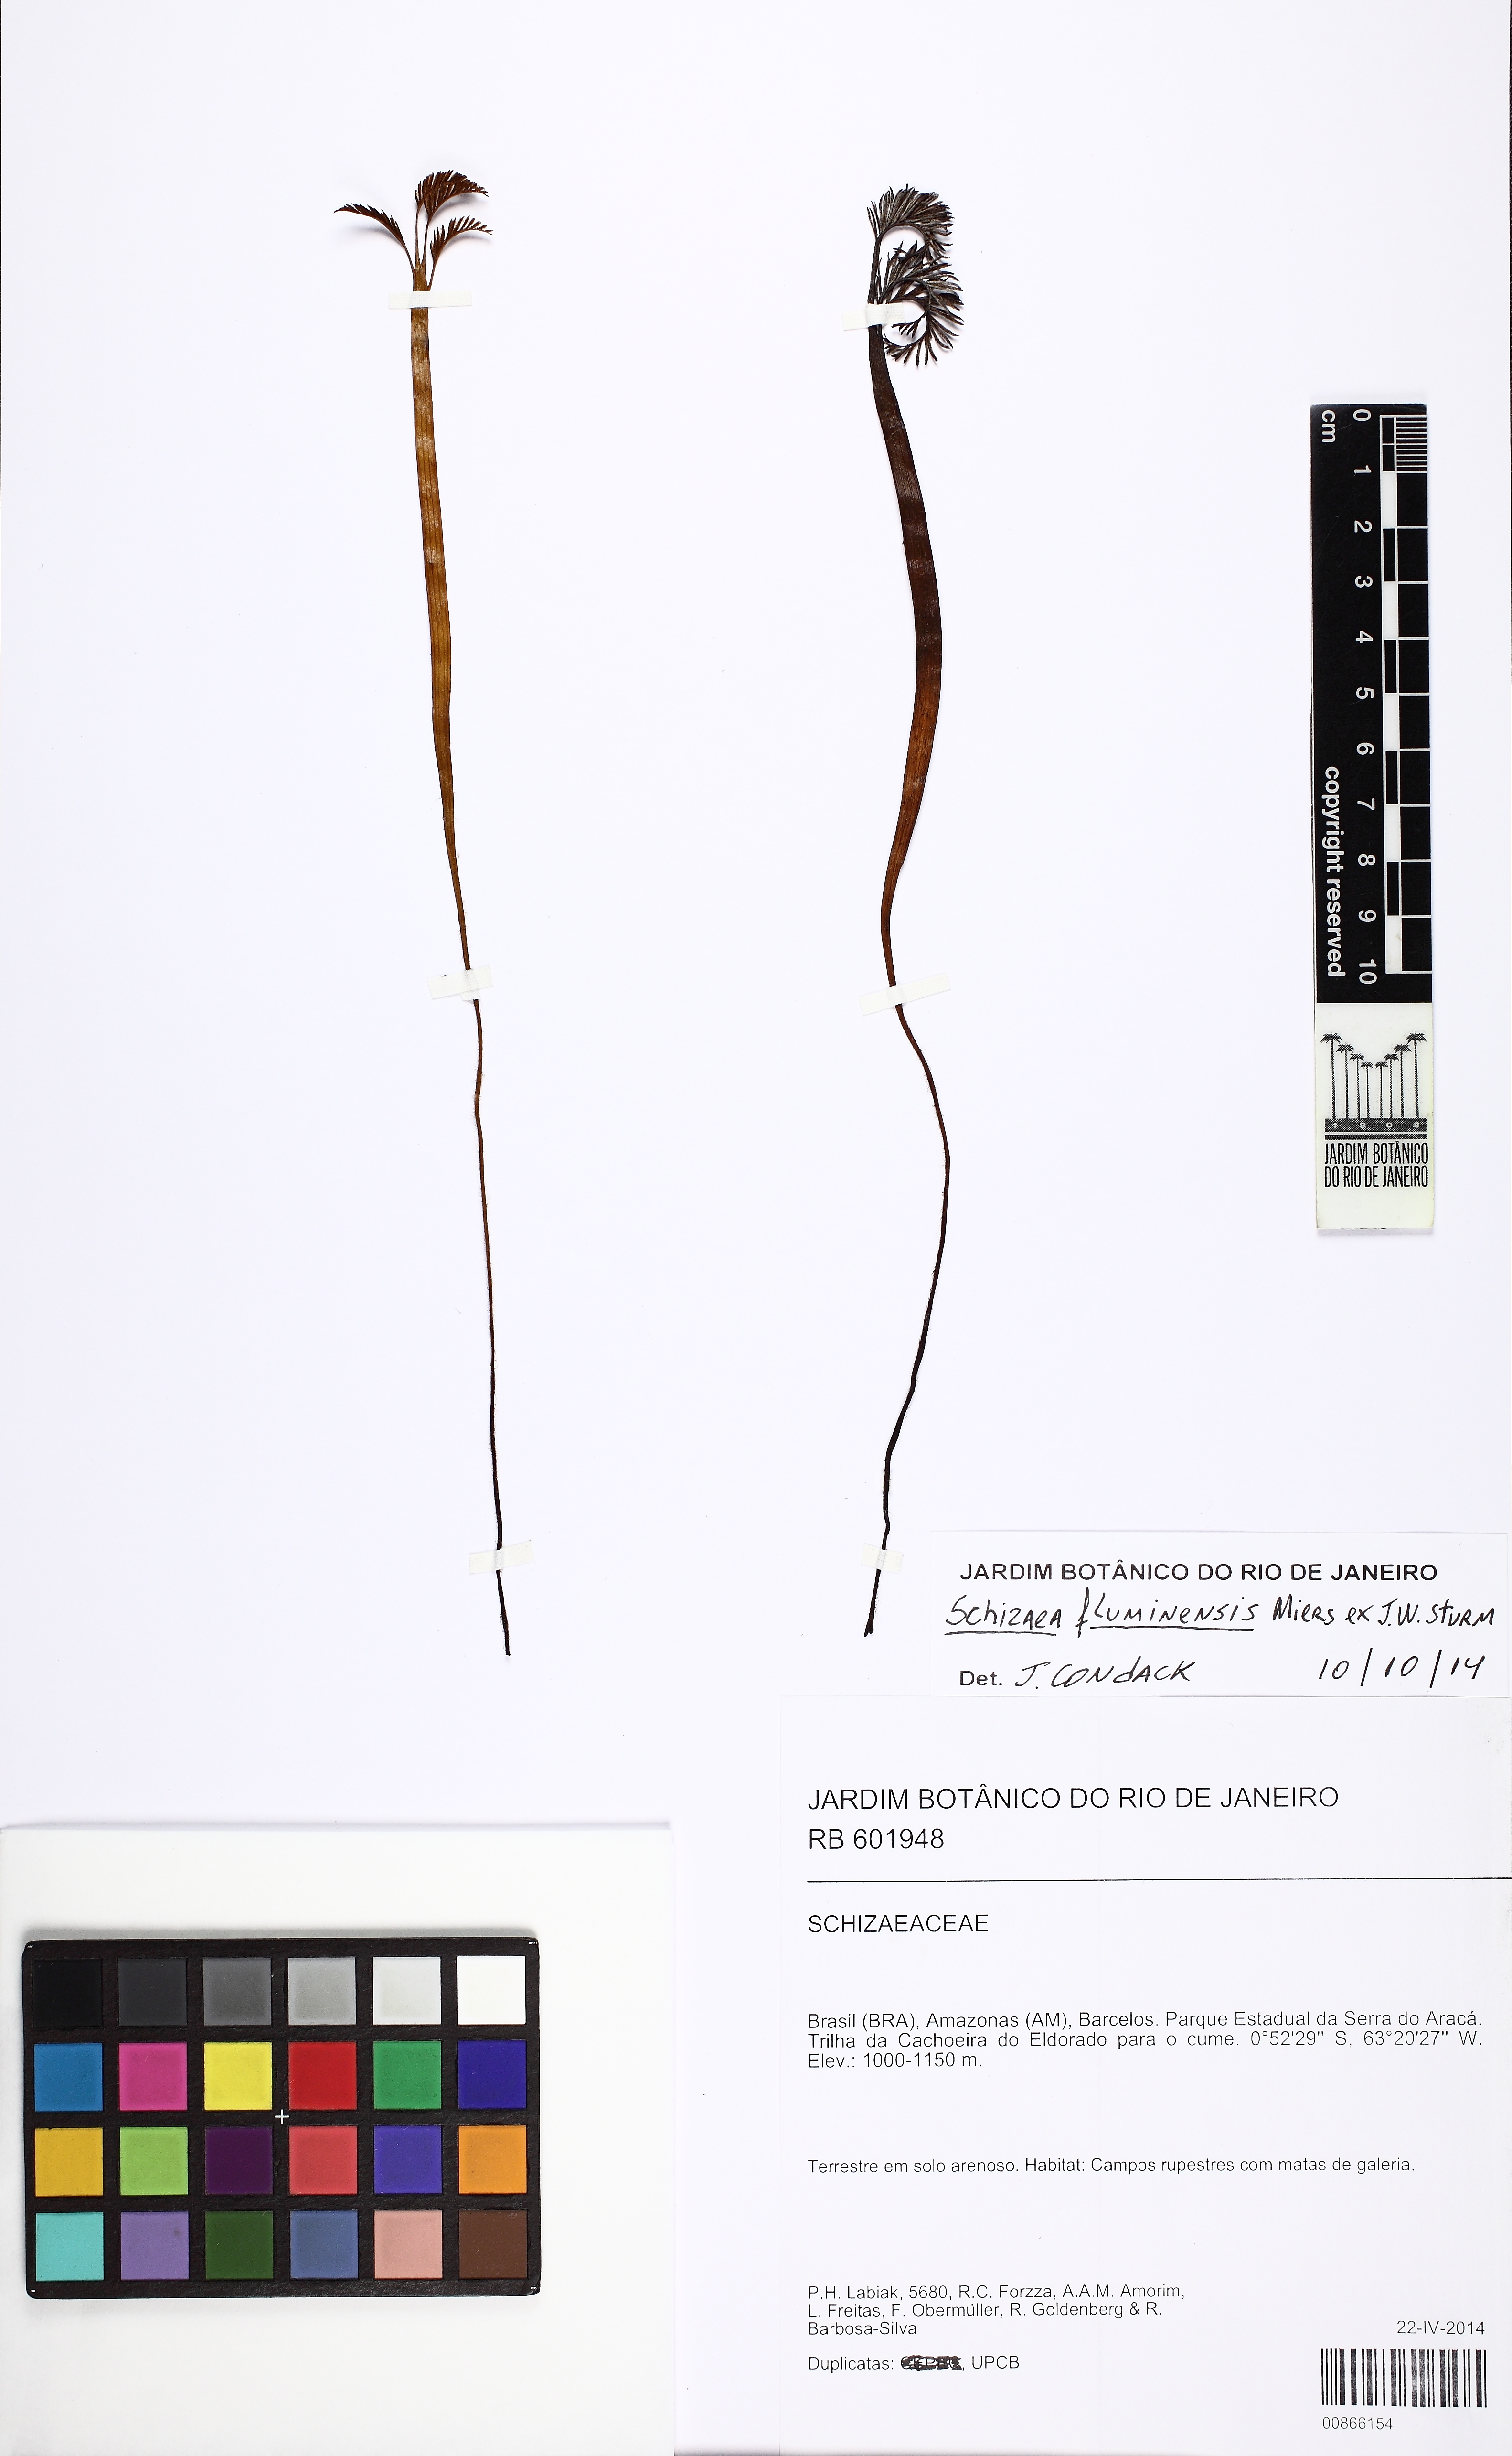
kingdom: Plantae
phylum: Tracheophyta
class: Polypodiopsida
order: Schizaeales
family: Schizaeaceae
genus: Schizaea
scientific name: Schizaea sprucei
